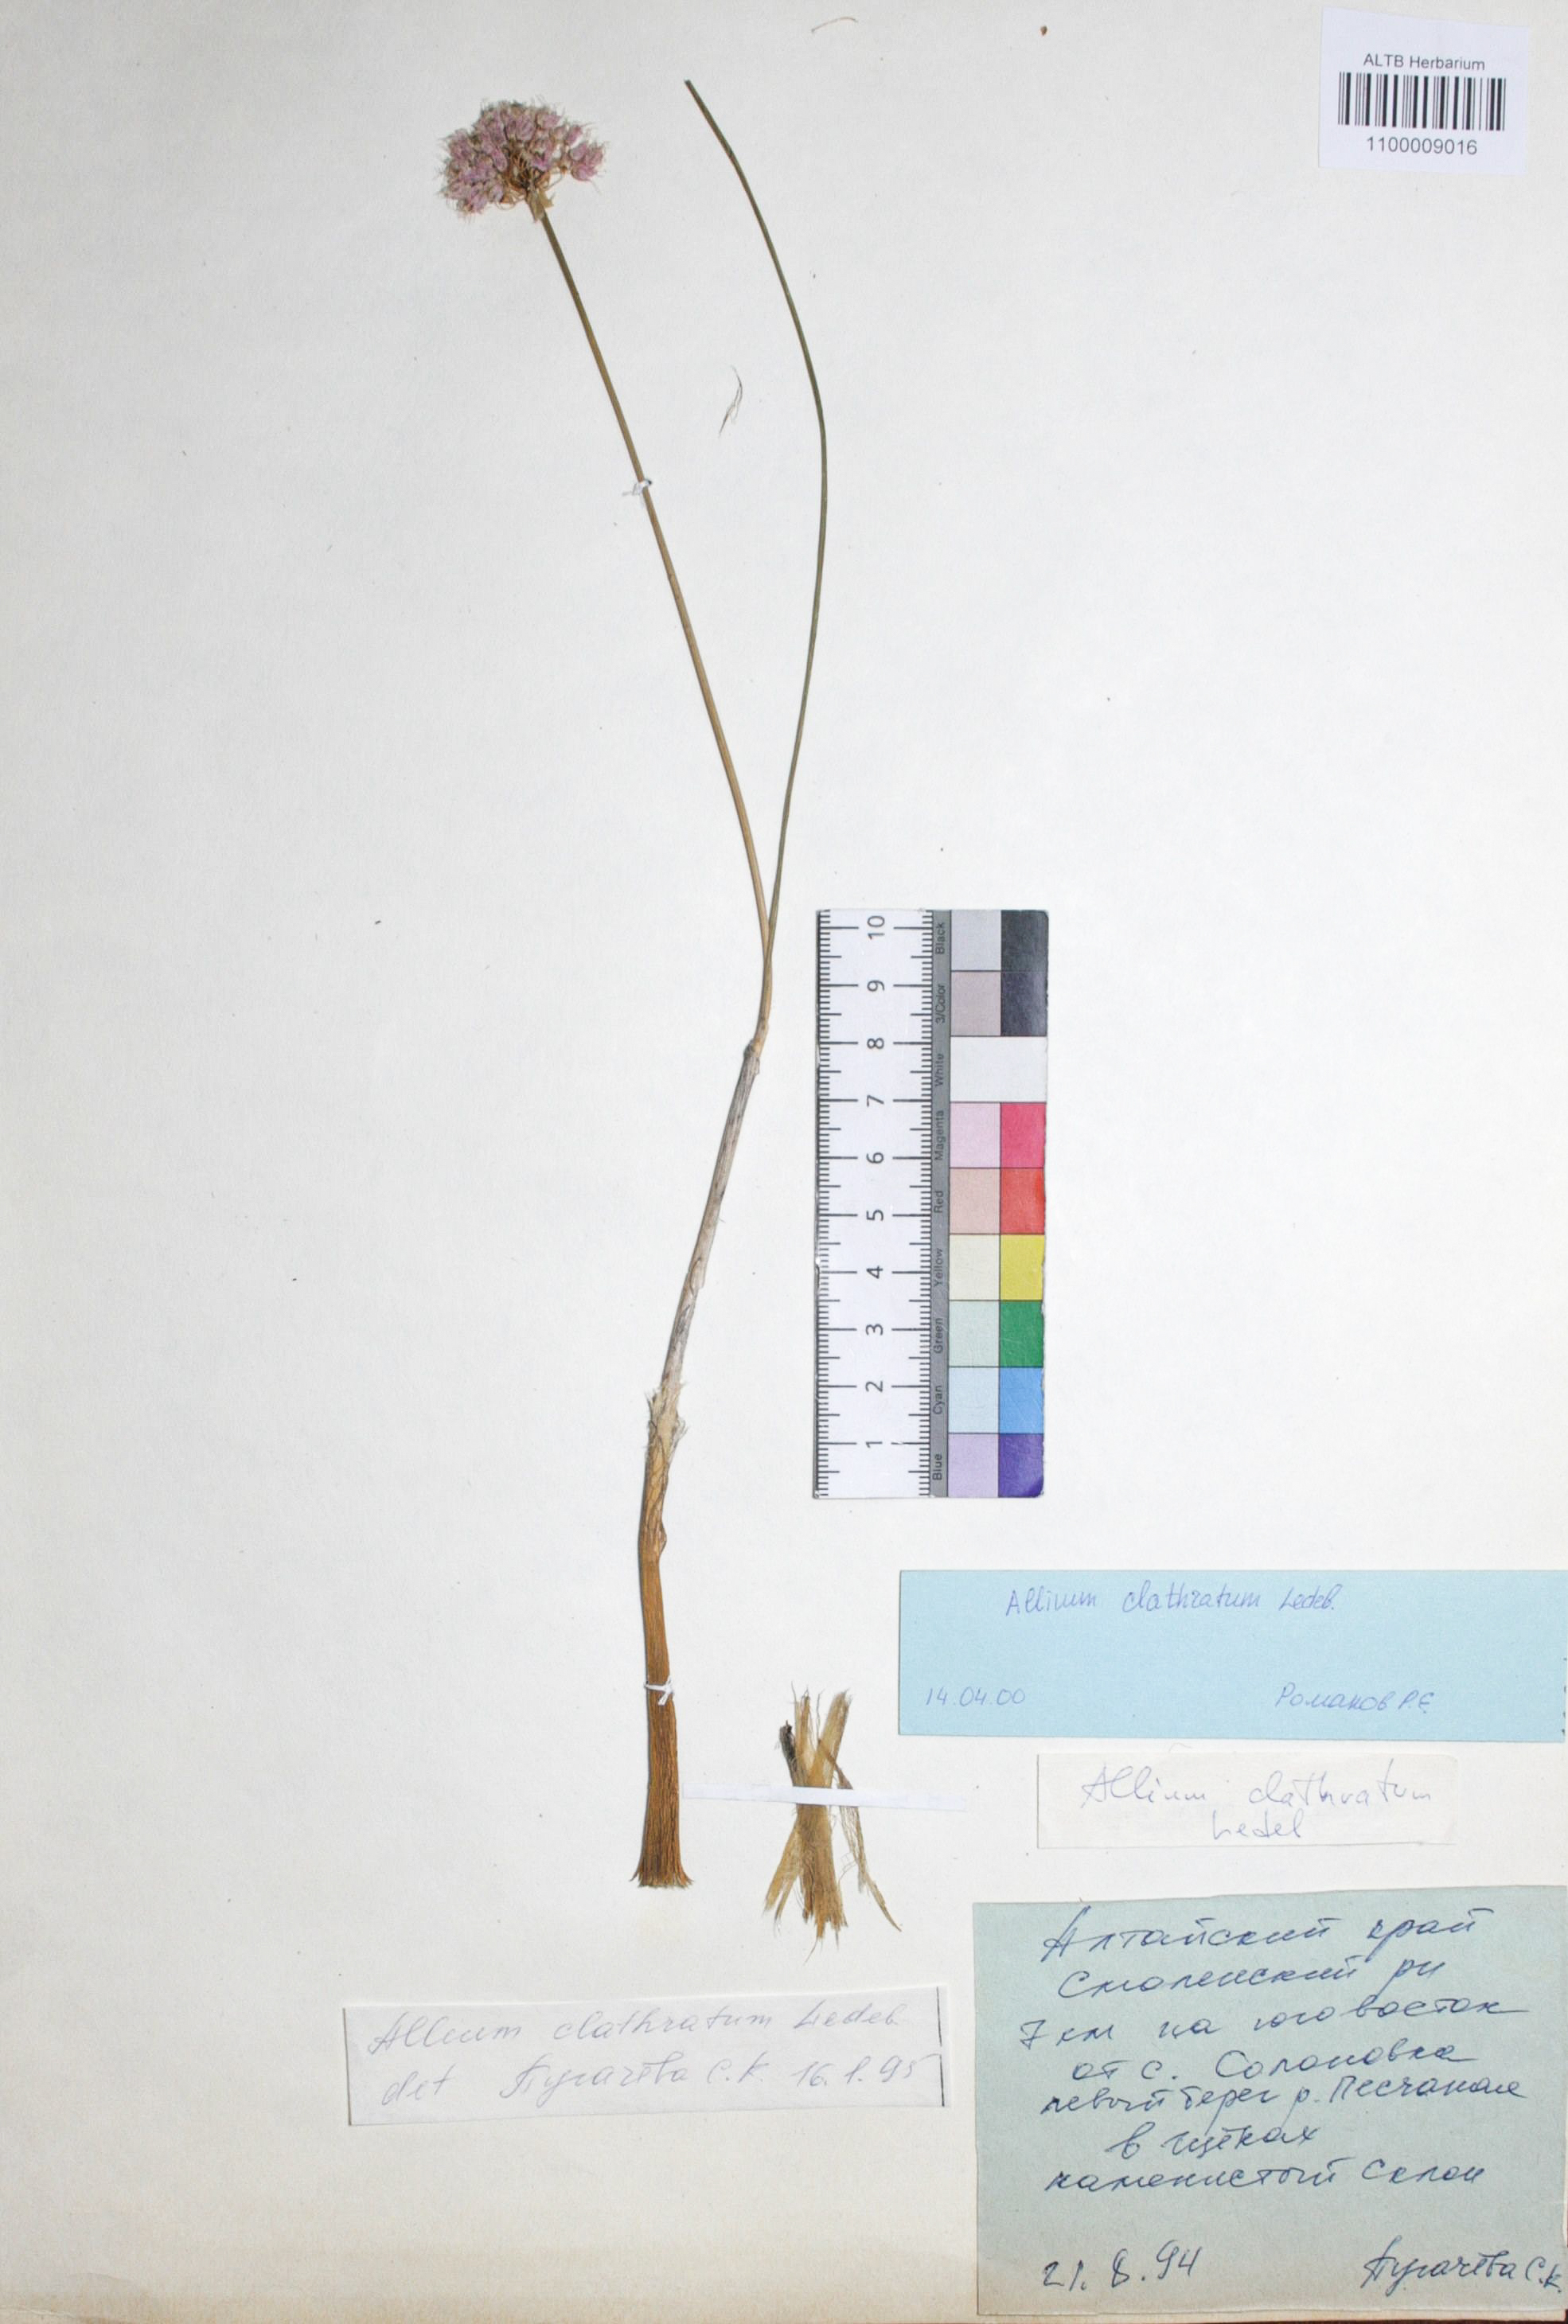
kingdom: Plantae
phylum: Tracheophyta
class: Liliopsida
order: Asparagales
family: Amaryllidaceae
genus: Allium
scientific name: Allium clathratum
